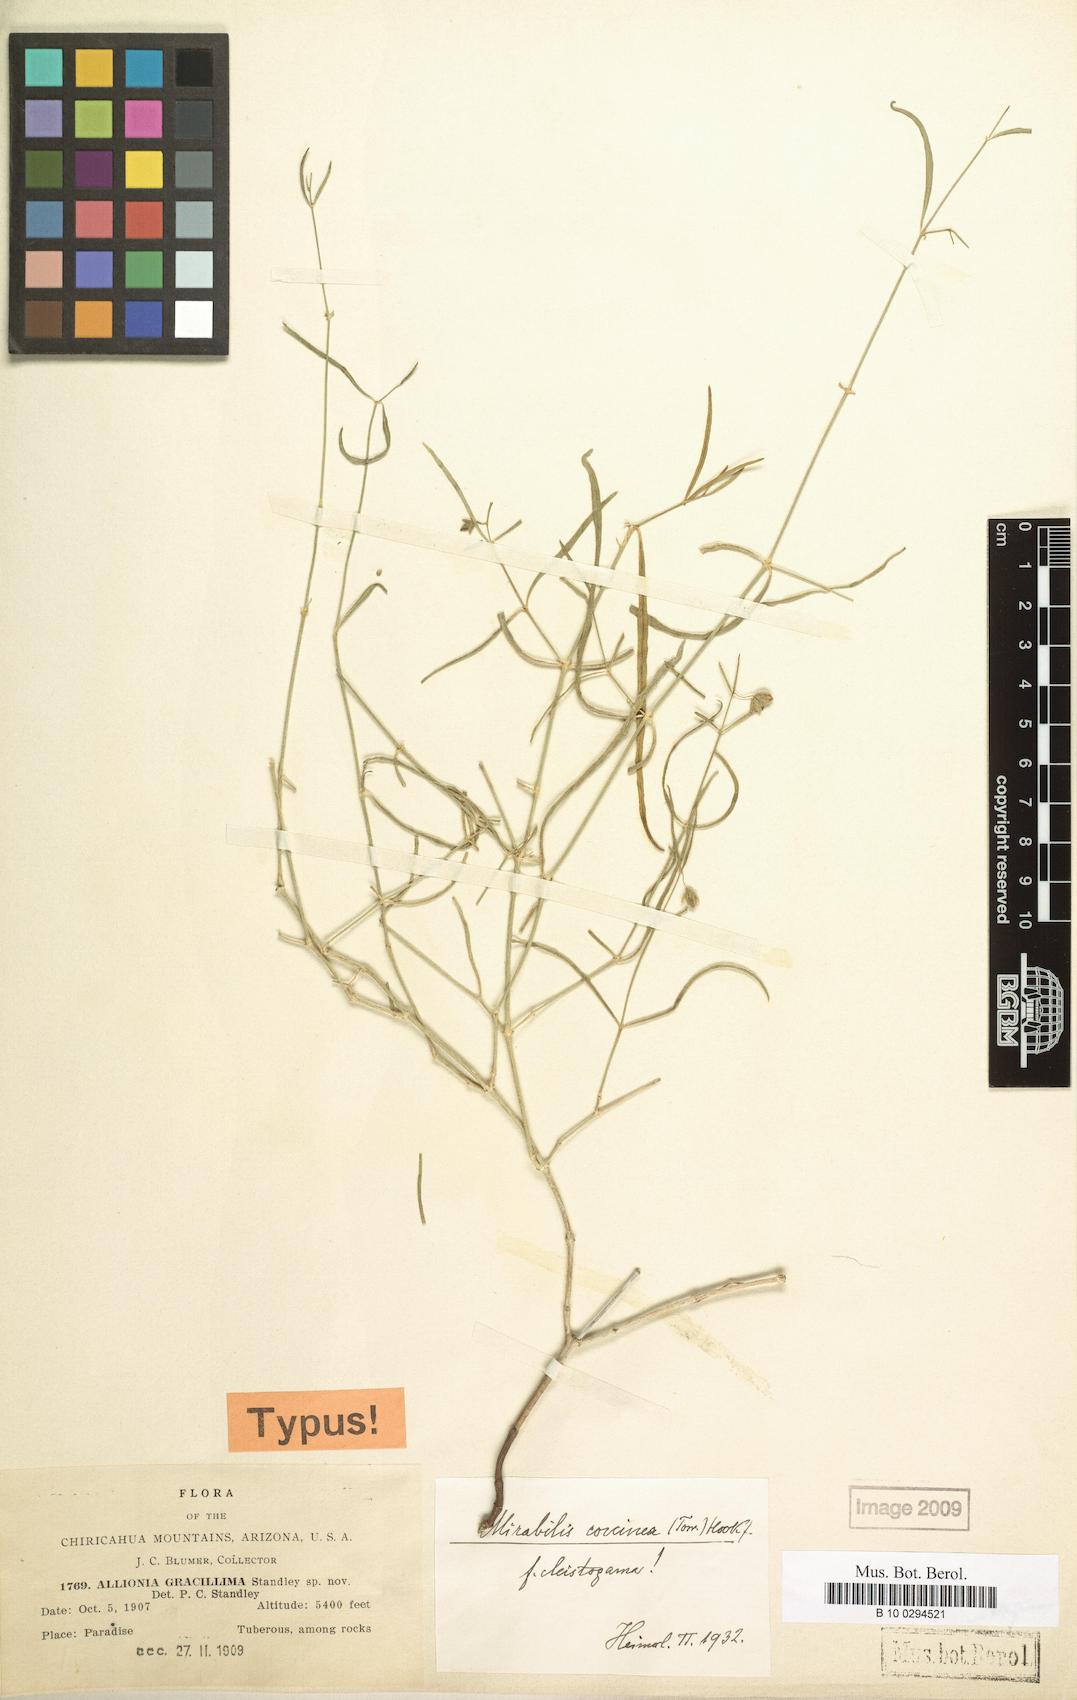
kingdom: Plantae
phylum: Tracheophyta
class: Magnoliopsida
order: Caryophyllales
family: Nyctaginaceae
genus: Mirabilis
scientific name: Mirabilis coccinea
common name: Scarlet four-o'clock
